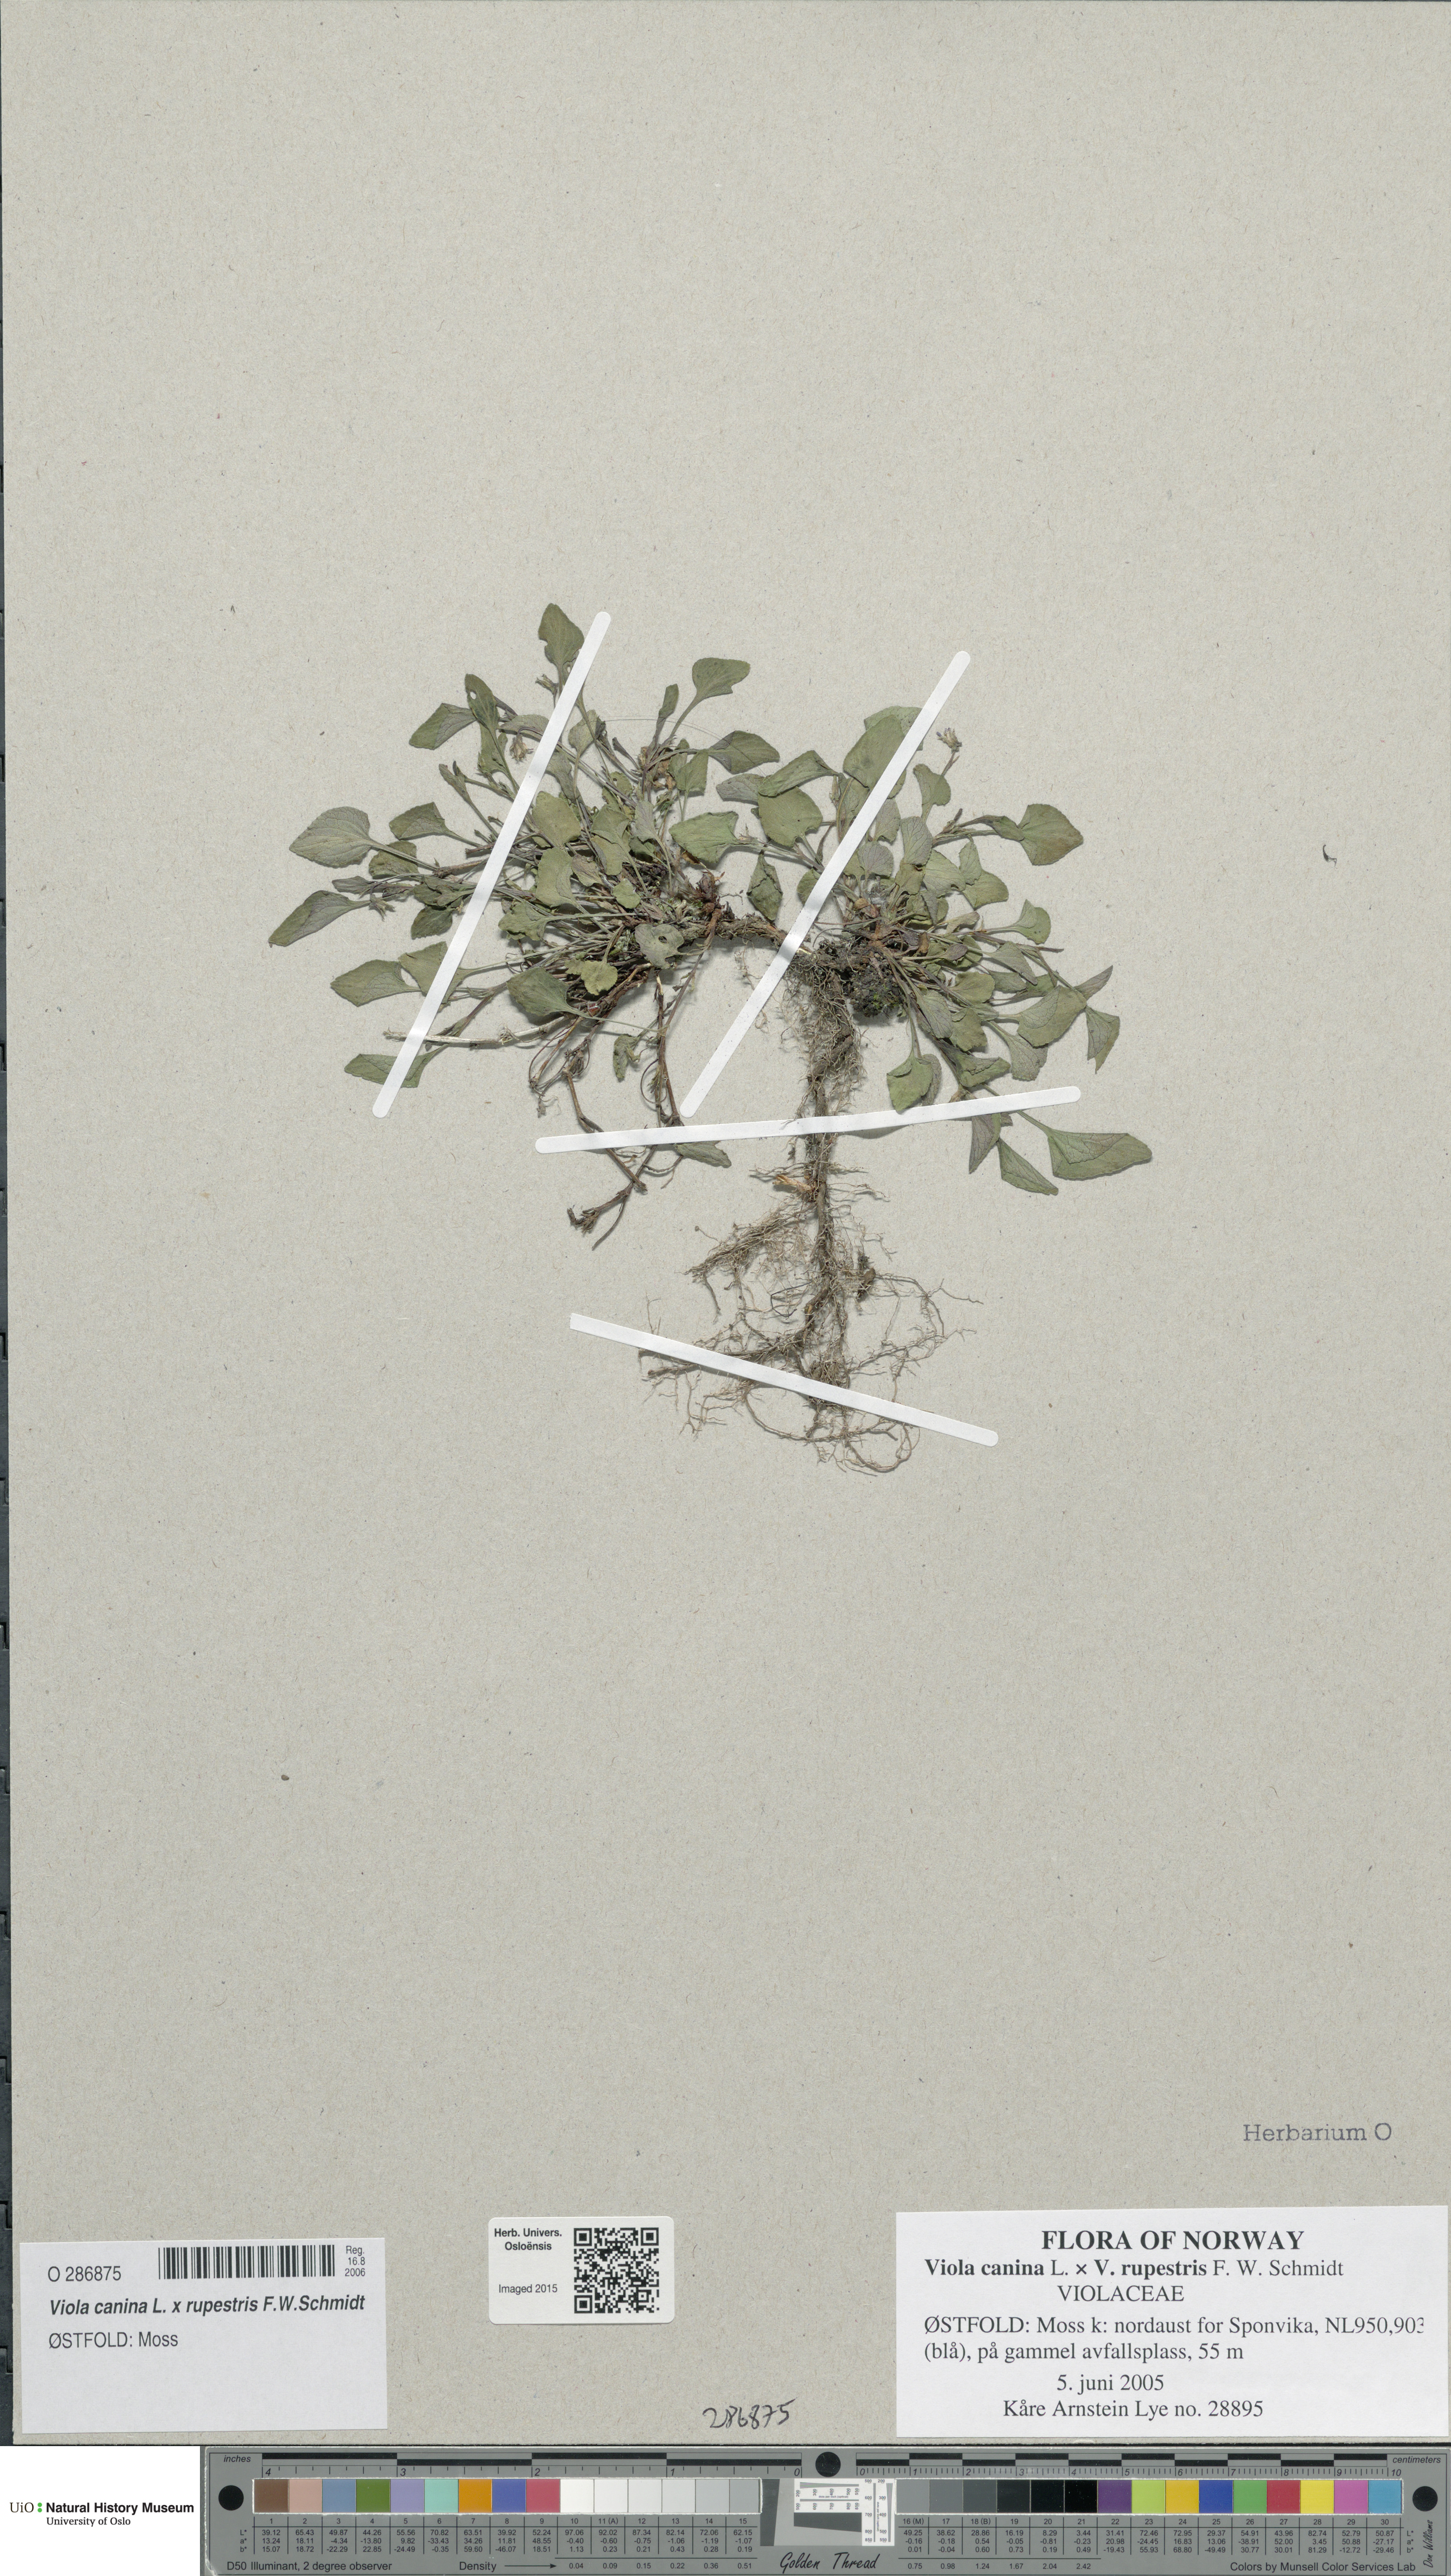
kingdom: Plantae
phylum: Tracheophyta
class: Magnoliopsida
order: Malpighiales
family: Violaceae
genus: Viola
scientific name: Viola
